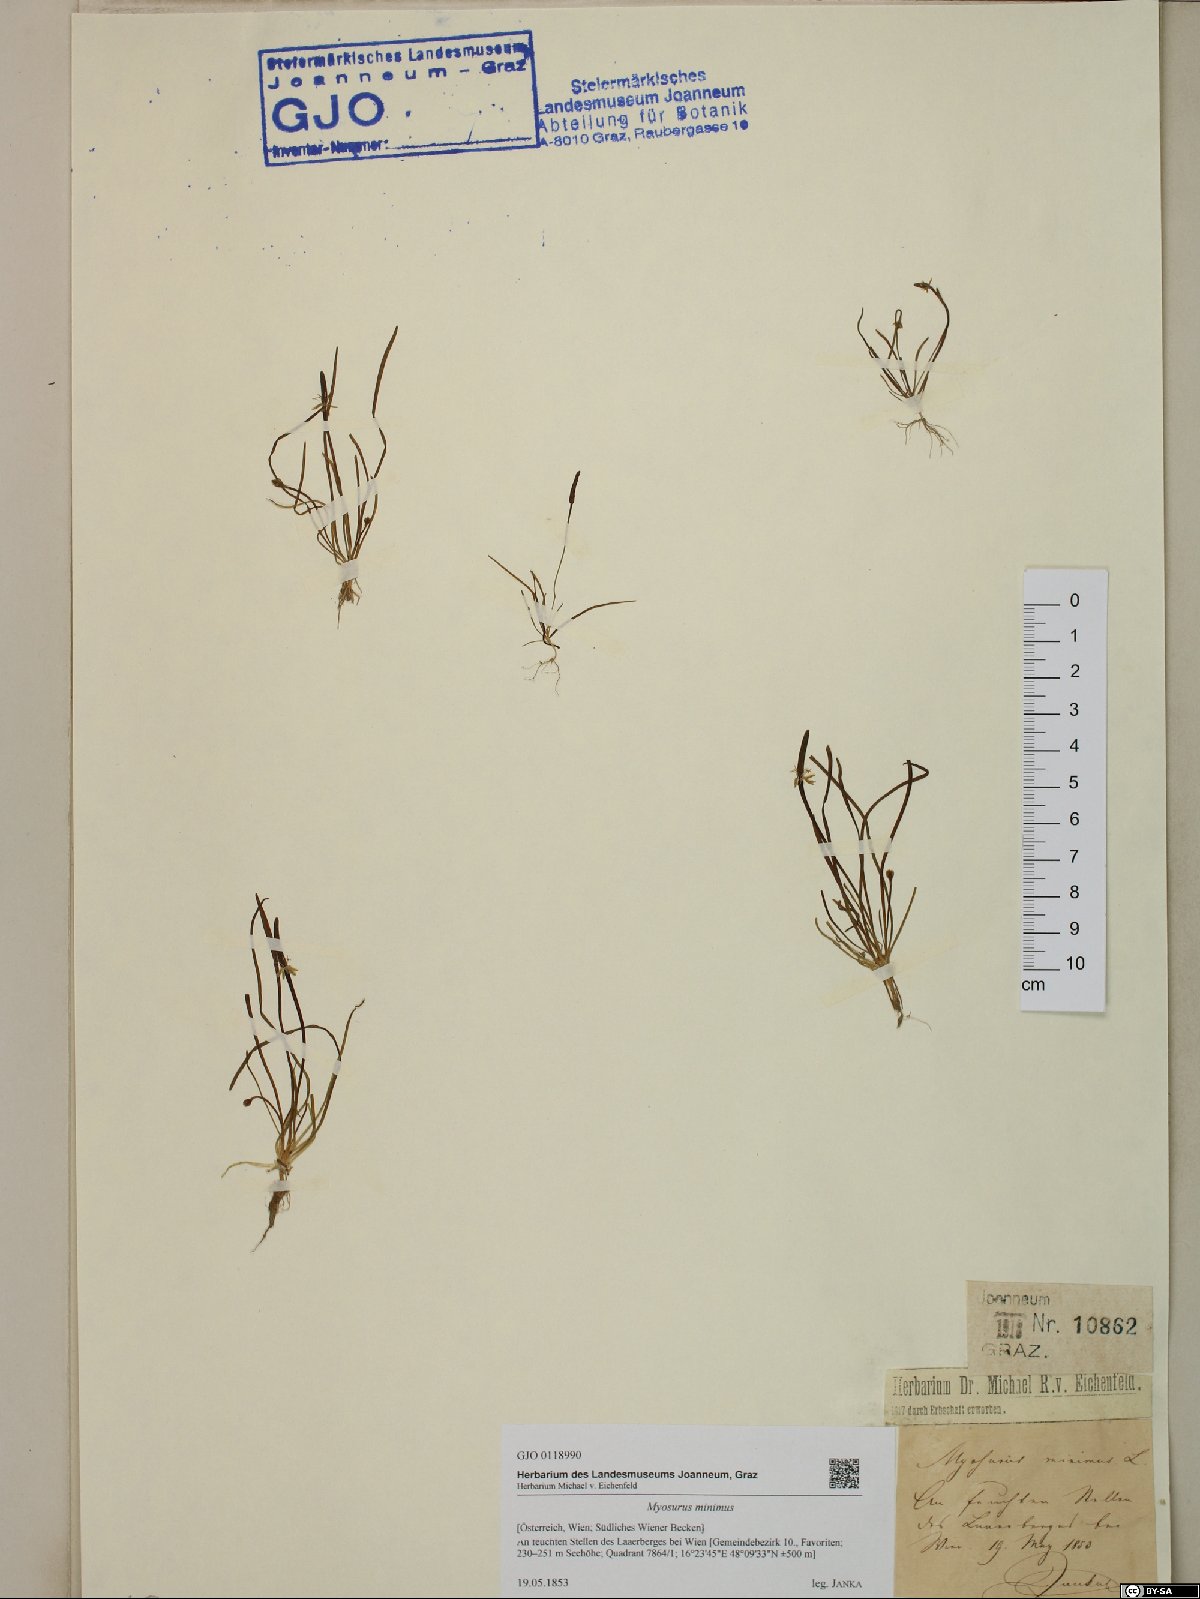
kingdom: Plantae
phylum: Tracheophyta
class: Magnoliopsida
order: Ranunculales
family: Ranunculaceae
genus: Myosurus
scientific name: Myosurus minimus
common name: Mousetail
